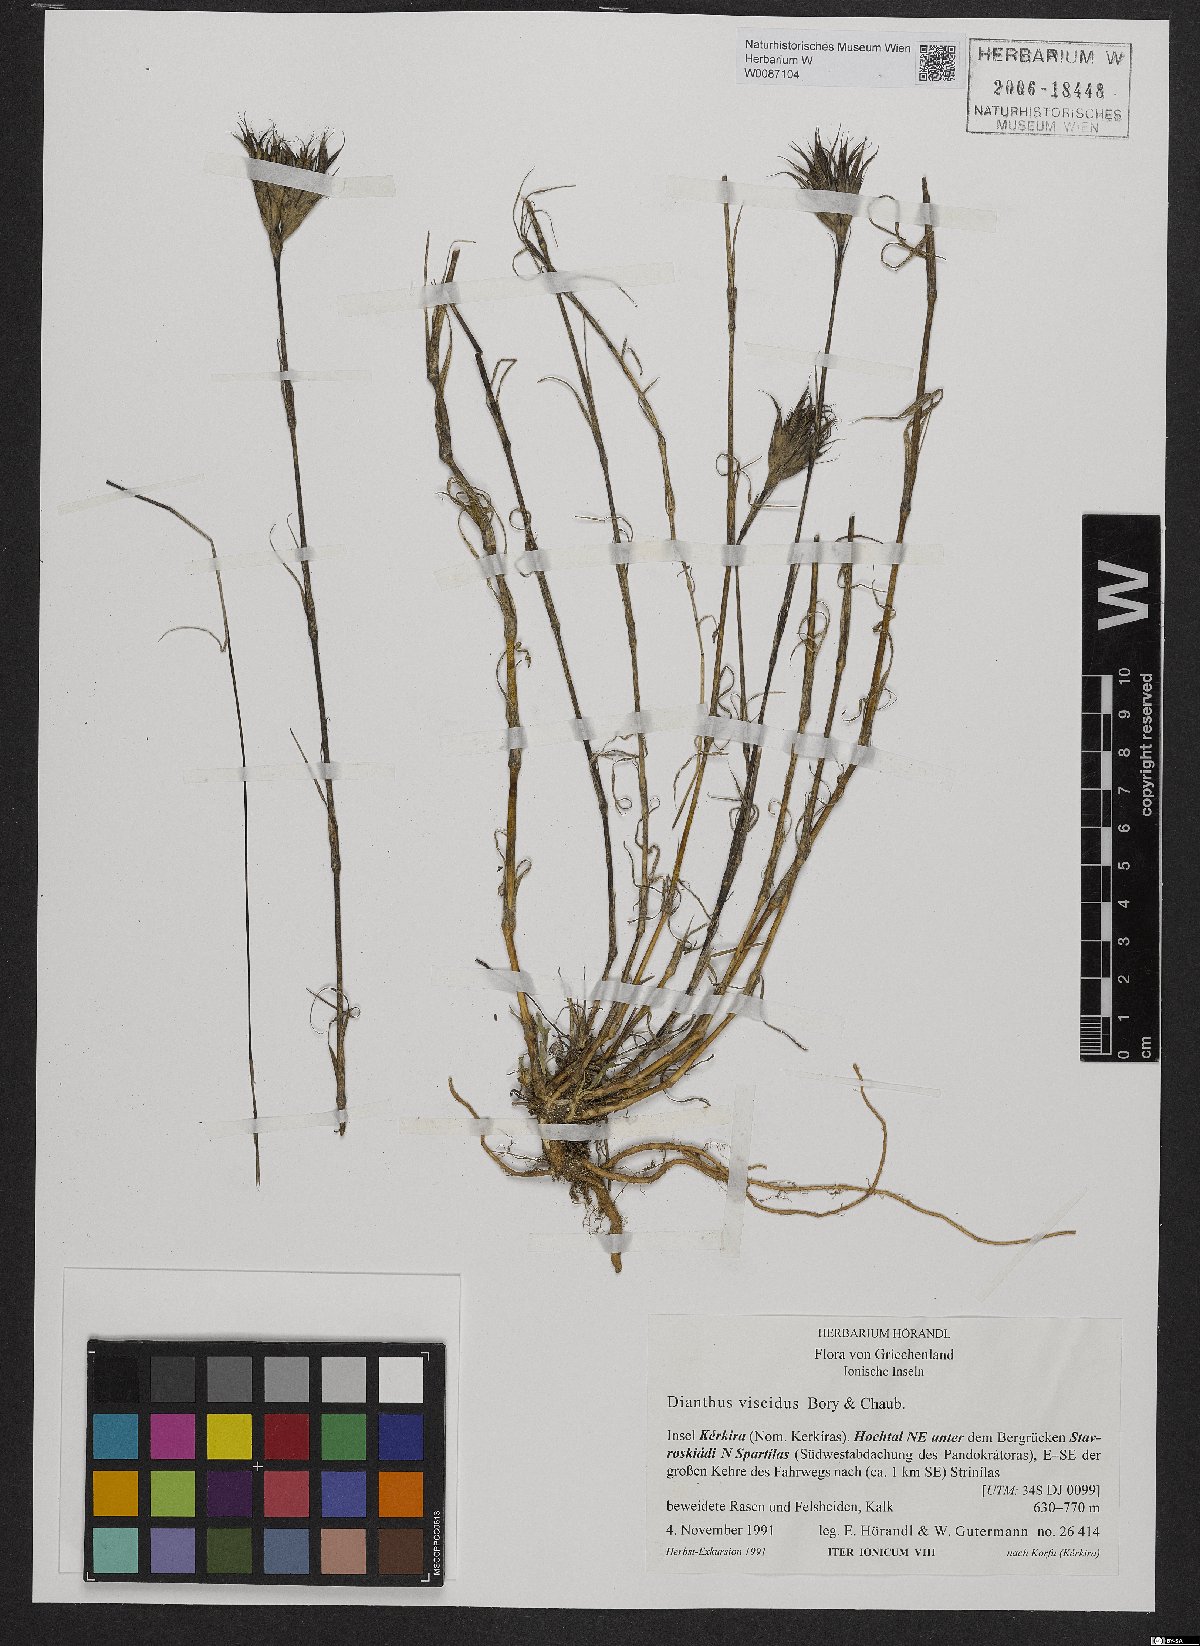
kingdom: Plantae
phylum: Tracheophyta
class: Magnoliopsida
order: Caryophyllales
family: Caryophyllaceae
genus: Dianthus
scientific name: Dianthus viscidus
